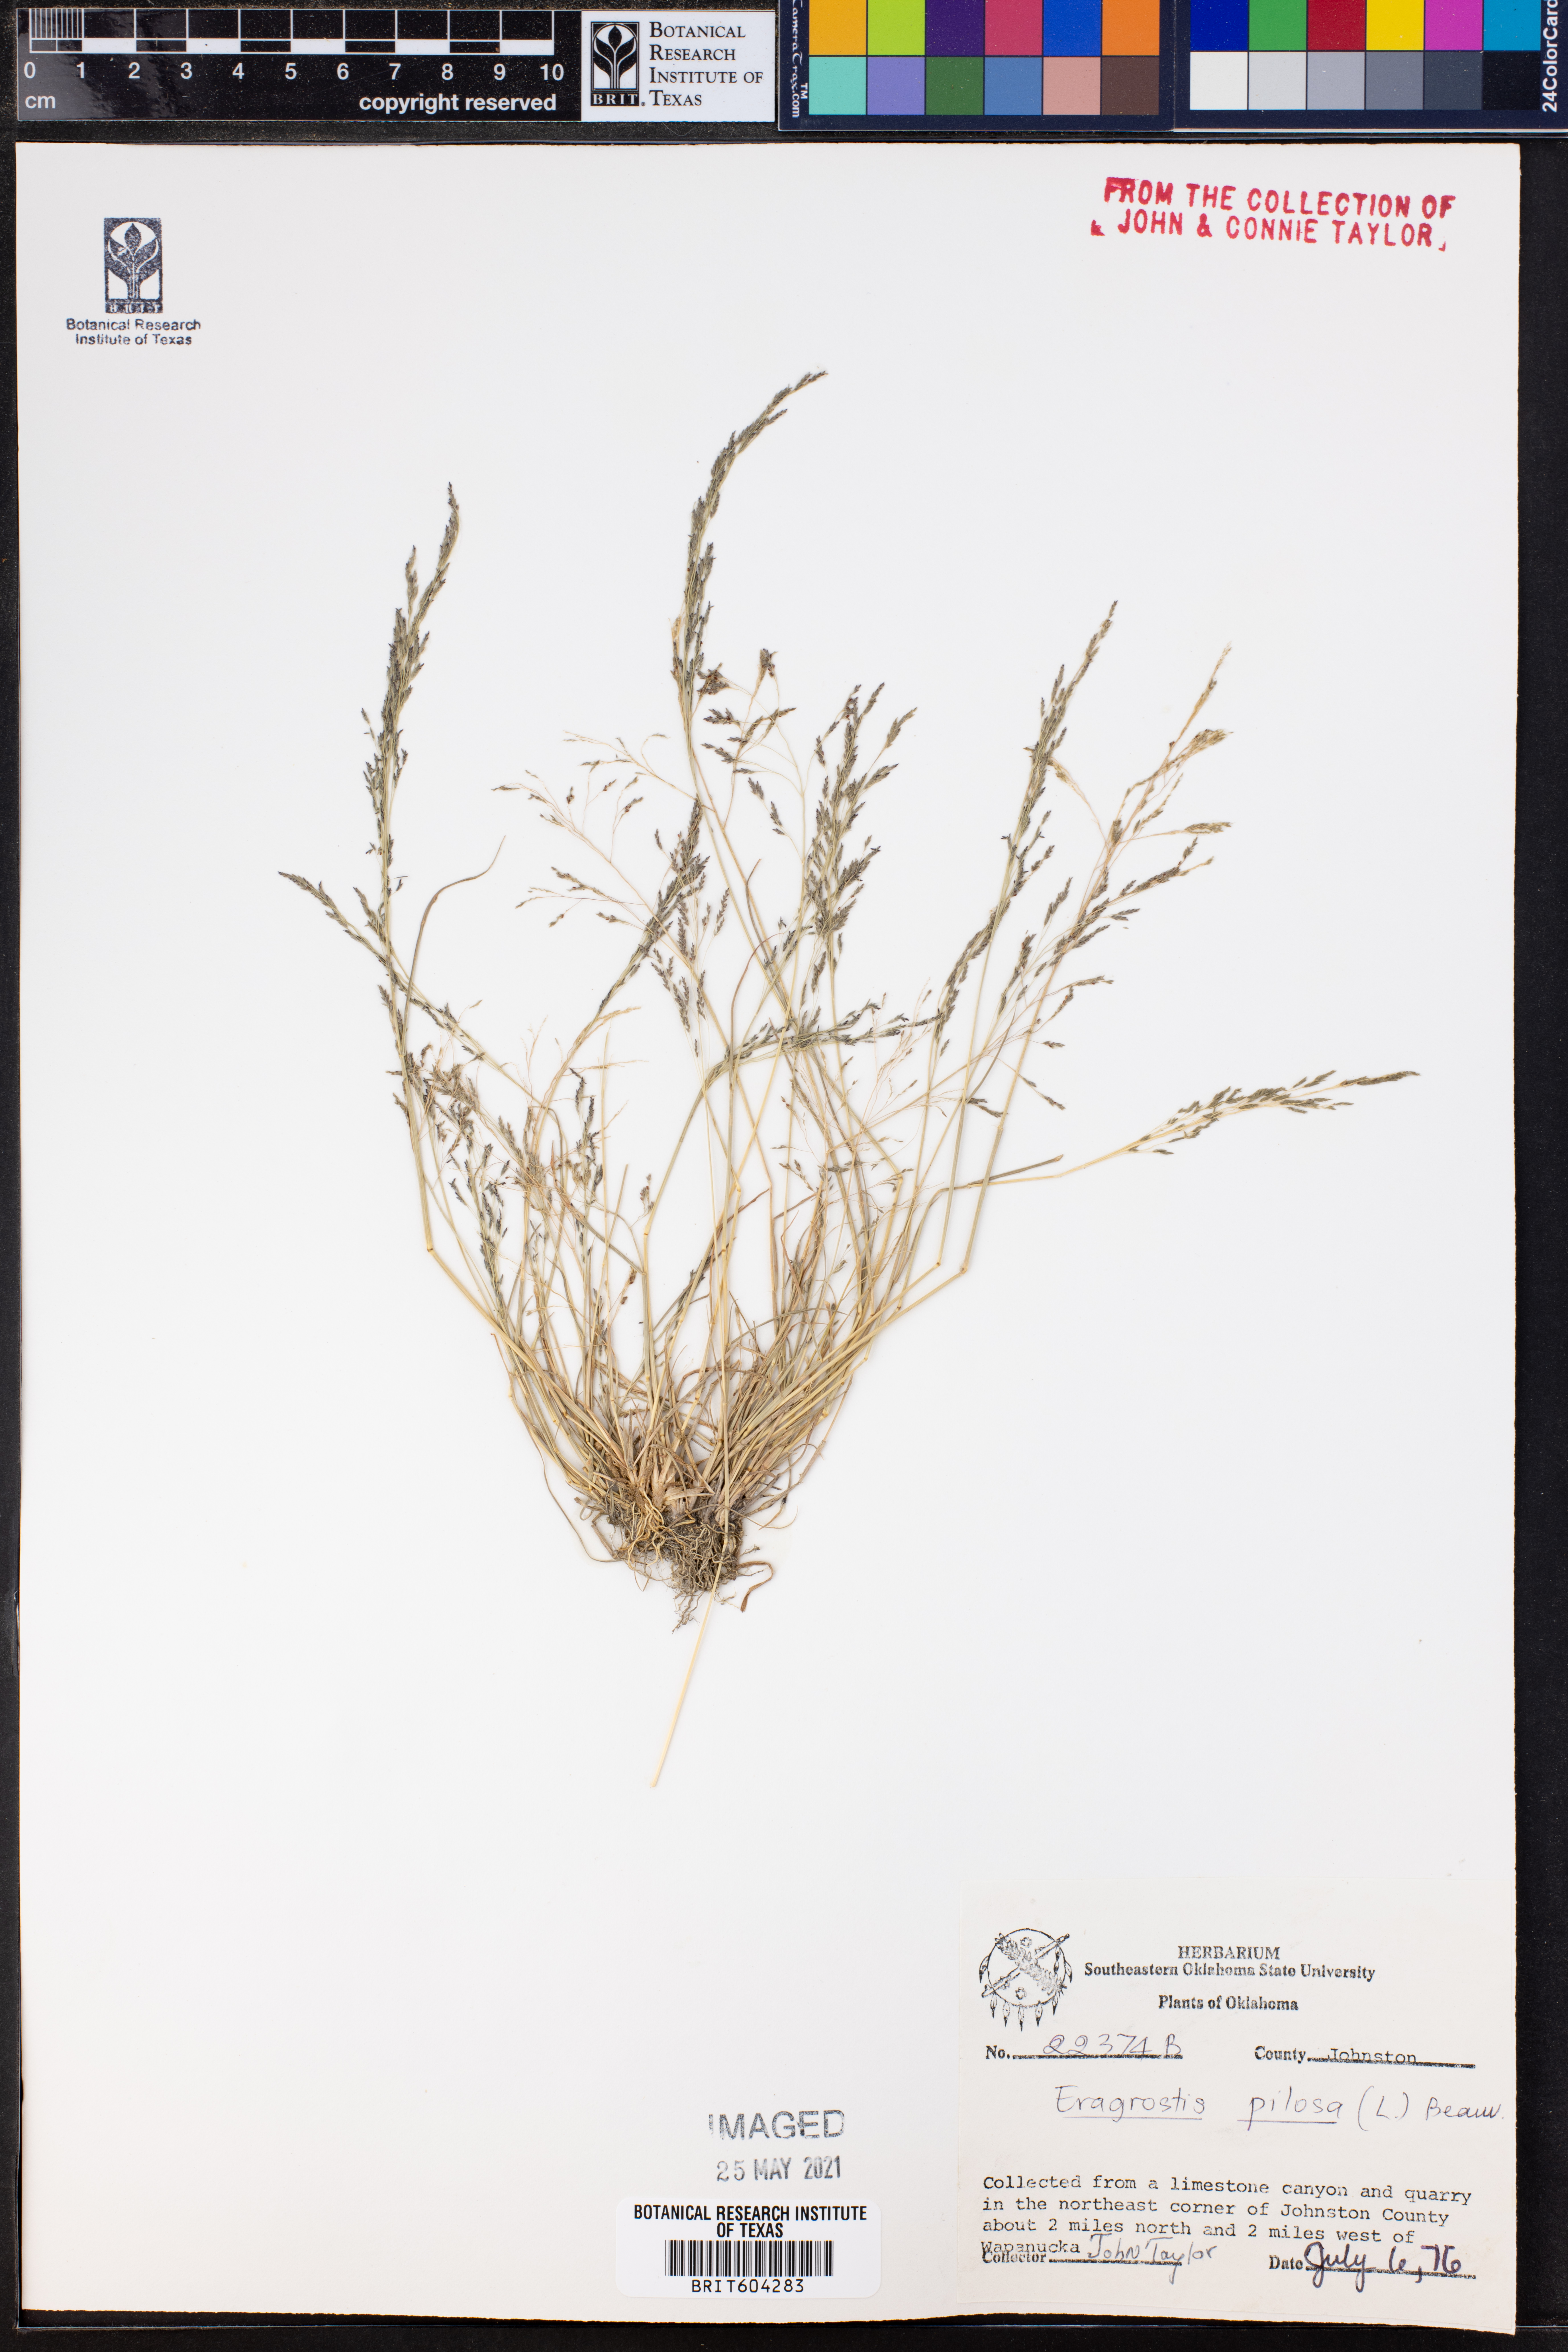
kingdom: Plantae
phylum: Tracheophyta
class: Liliopsida
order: Poales
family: Poaceae
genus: Eragrostis
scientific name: Eragrostis pilosa
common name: Indian lovegrass
